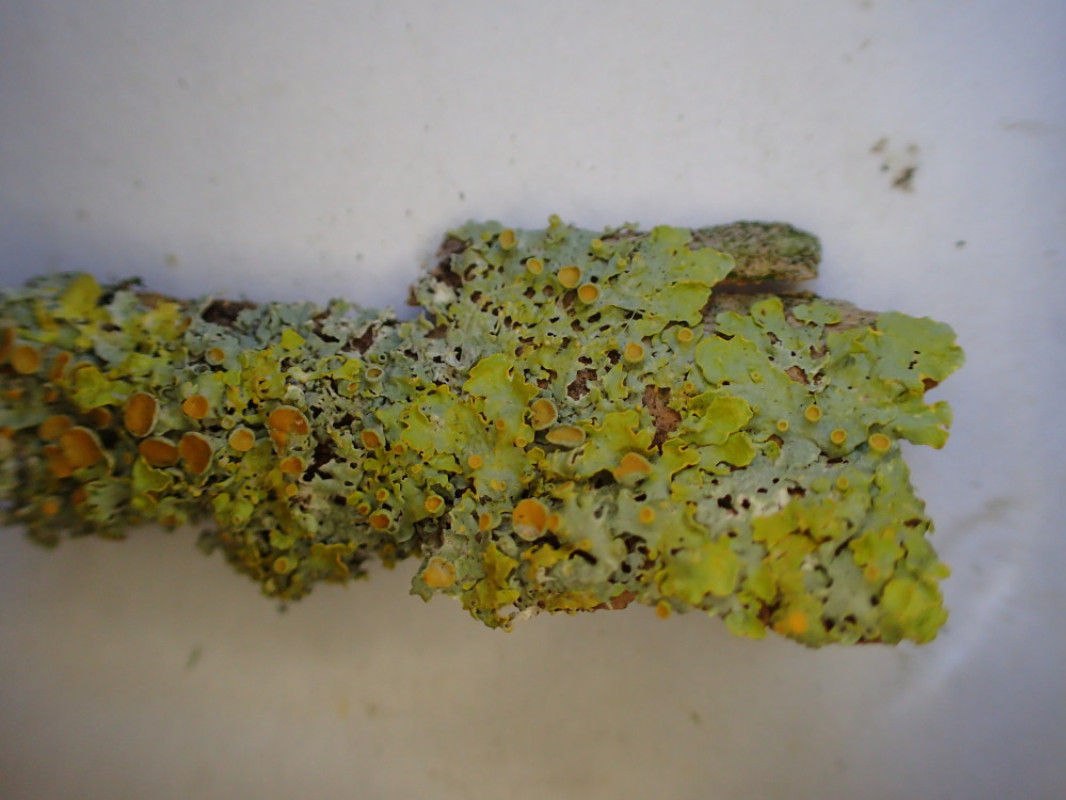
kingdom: Fungi
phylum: Ascomycota
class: Lecanoromycetes
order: Teloschistales
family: Teloschistaceae
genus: Xanthoria
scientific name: Xanthoria parietina
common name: almindelig væggelav
